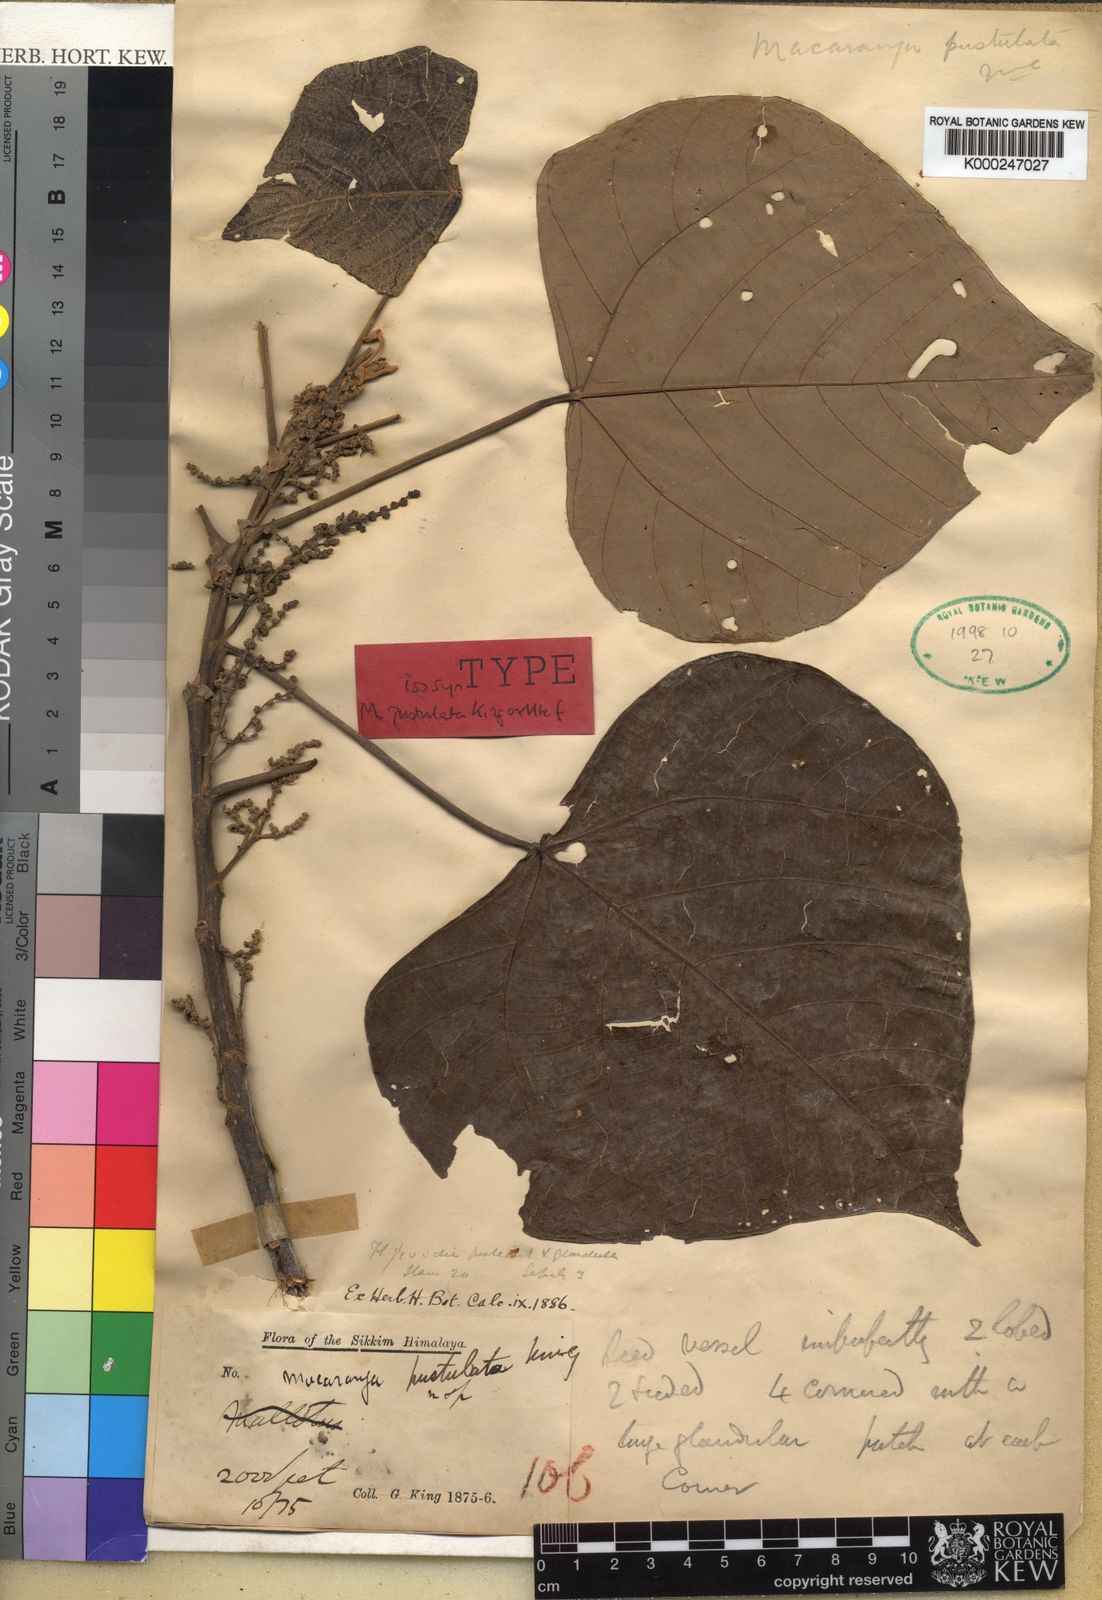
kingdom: Plantae
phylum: Tracheophyta
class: Magnoliopsida
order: Malpighiales
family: Euphorbiaceae
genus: Macaranga
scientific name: Macaranga denticulata
